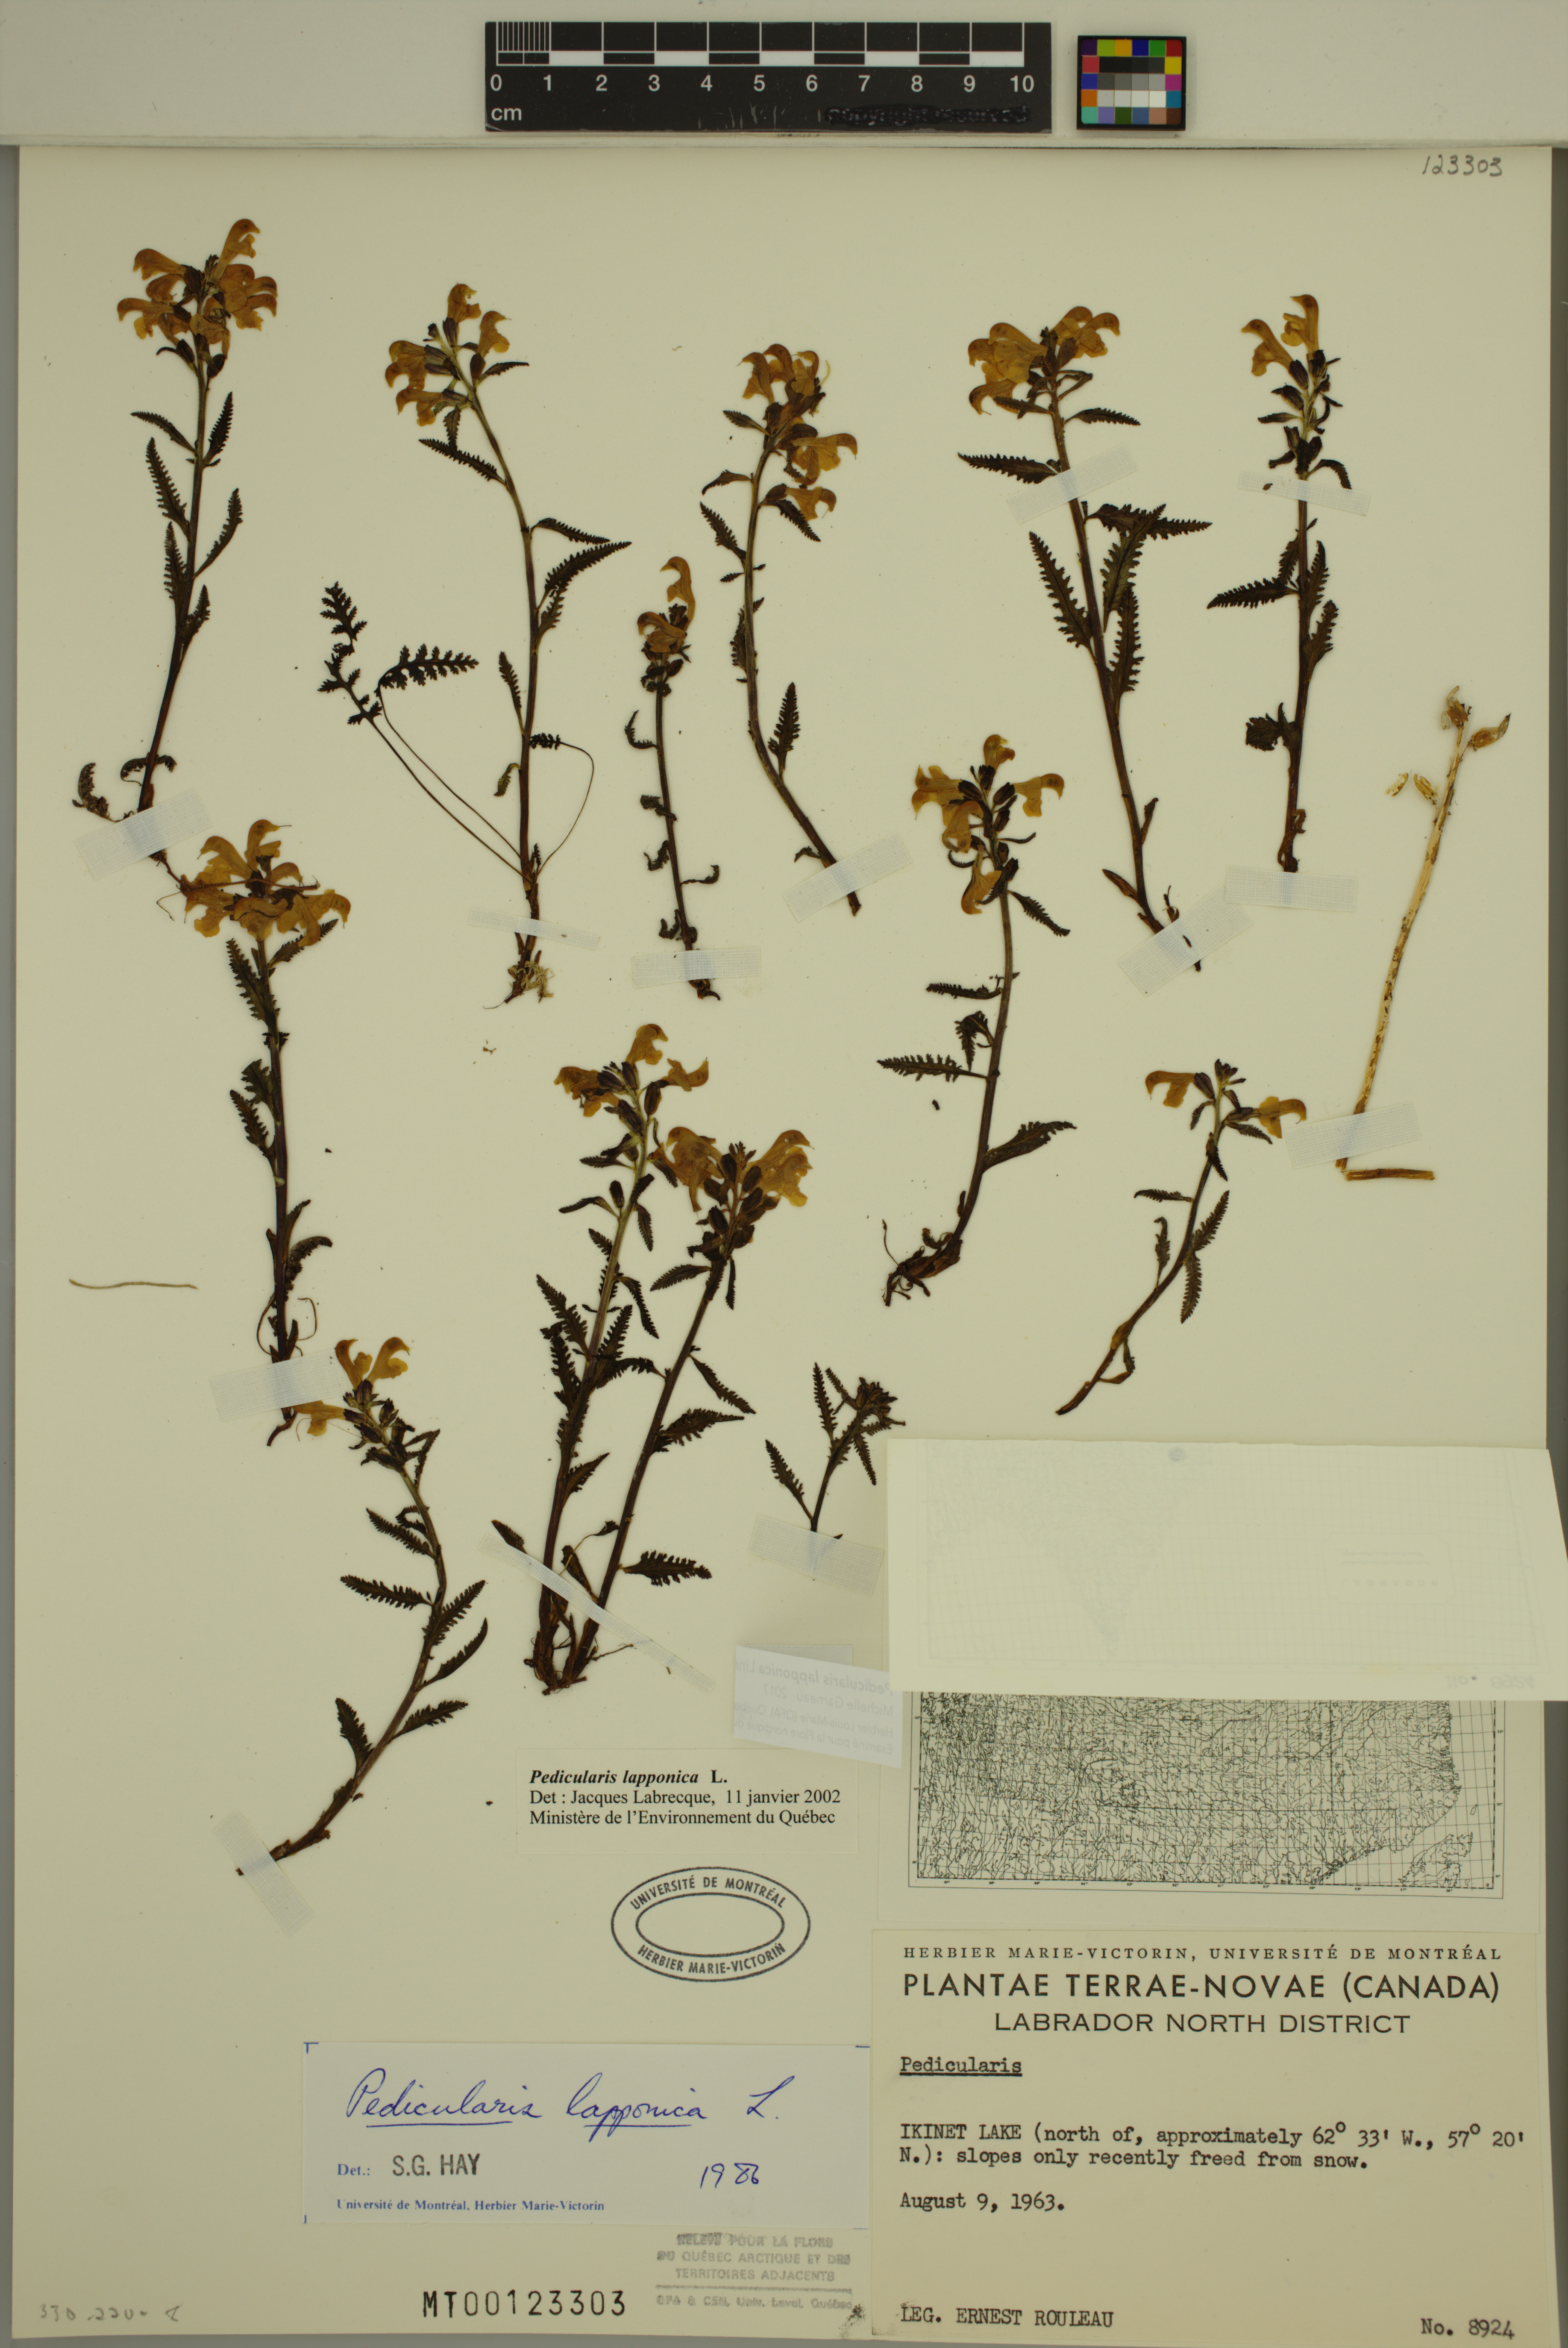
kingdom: Plantae
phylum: Tracheophyta
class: Magnoliopsida
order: Lamiales
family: Orobanchaceae
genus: Pedicularis
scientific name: Pedicularis lapponica
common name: Lapland lousewort
